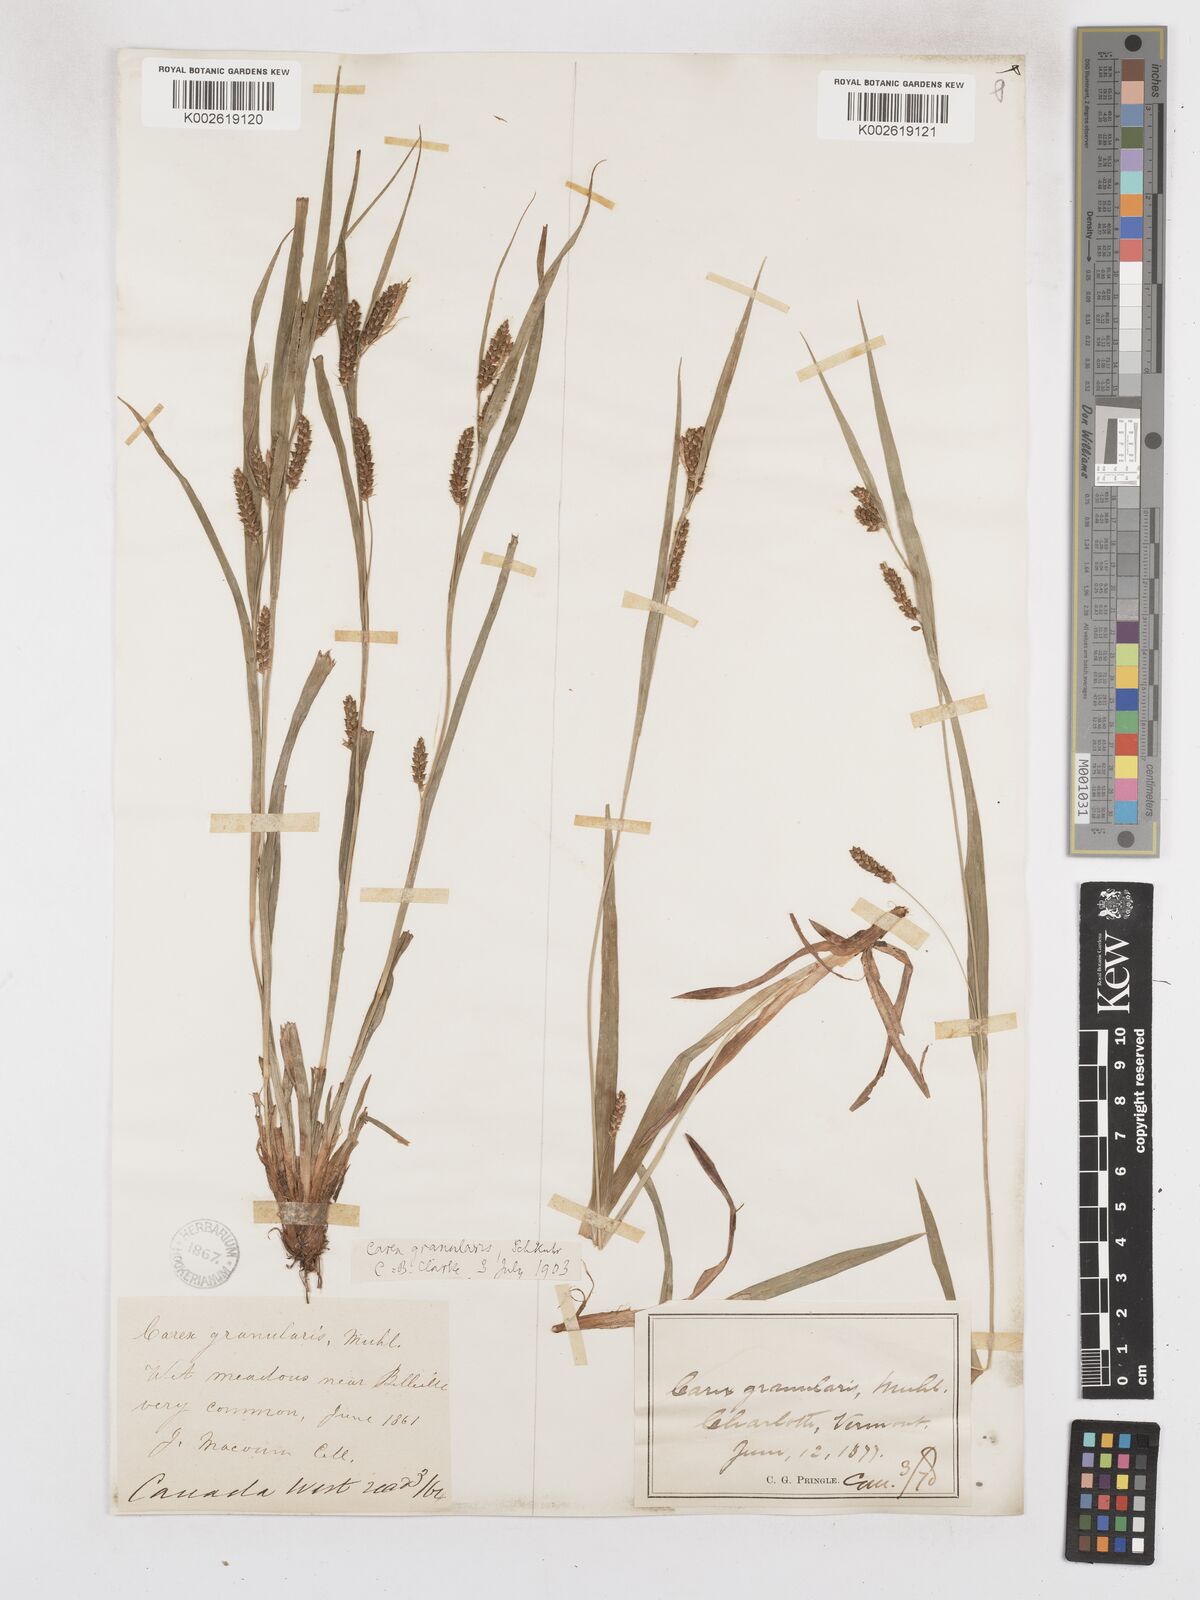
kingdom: Plantae
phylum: Tracheophyta
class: Liliopsida
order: Poales
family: Cyperaceae
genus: Carex
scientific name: Carex granularis
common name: Granular sedge
